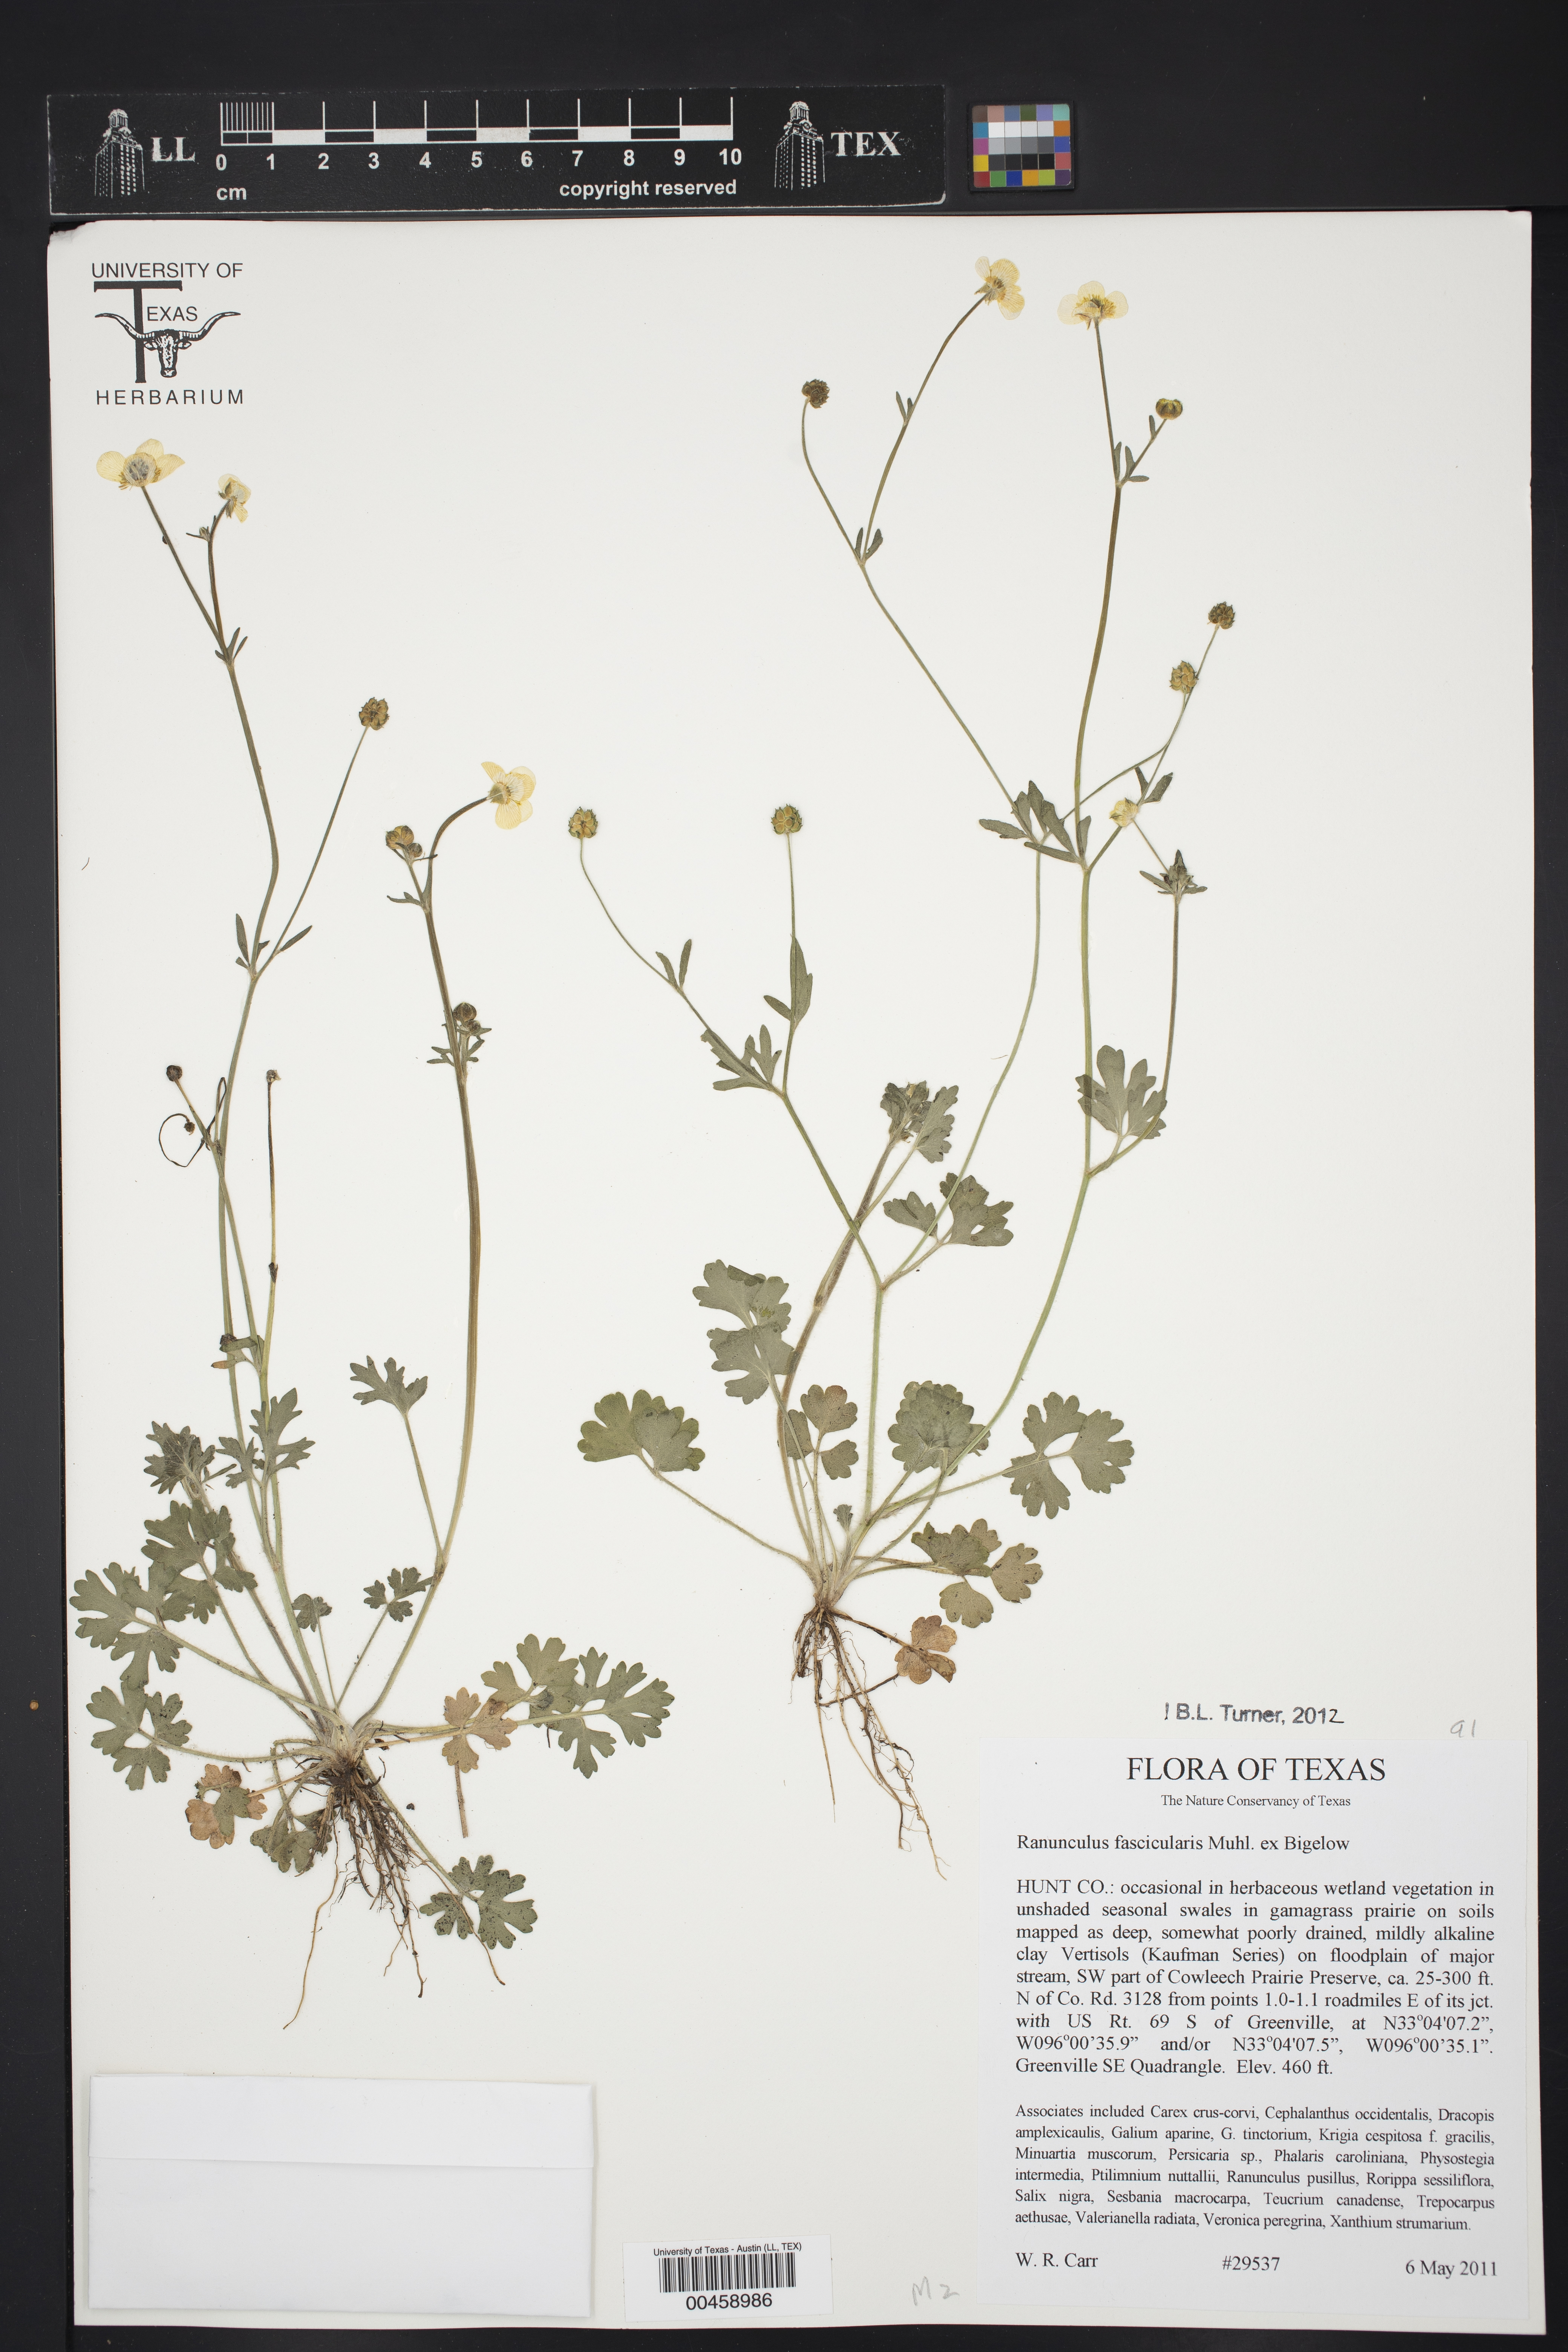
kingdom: Plantae
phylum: Tracheophyta
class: Magnoliopsida
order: Ranunculales
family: Ranunculaceae
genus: Ranunculus
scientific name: Ranunculus fascicularis
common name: Early buttercup
